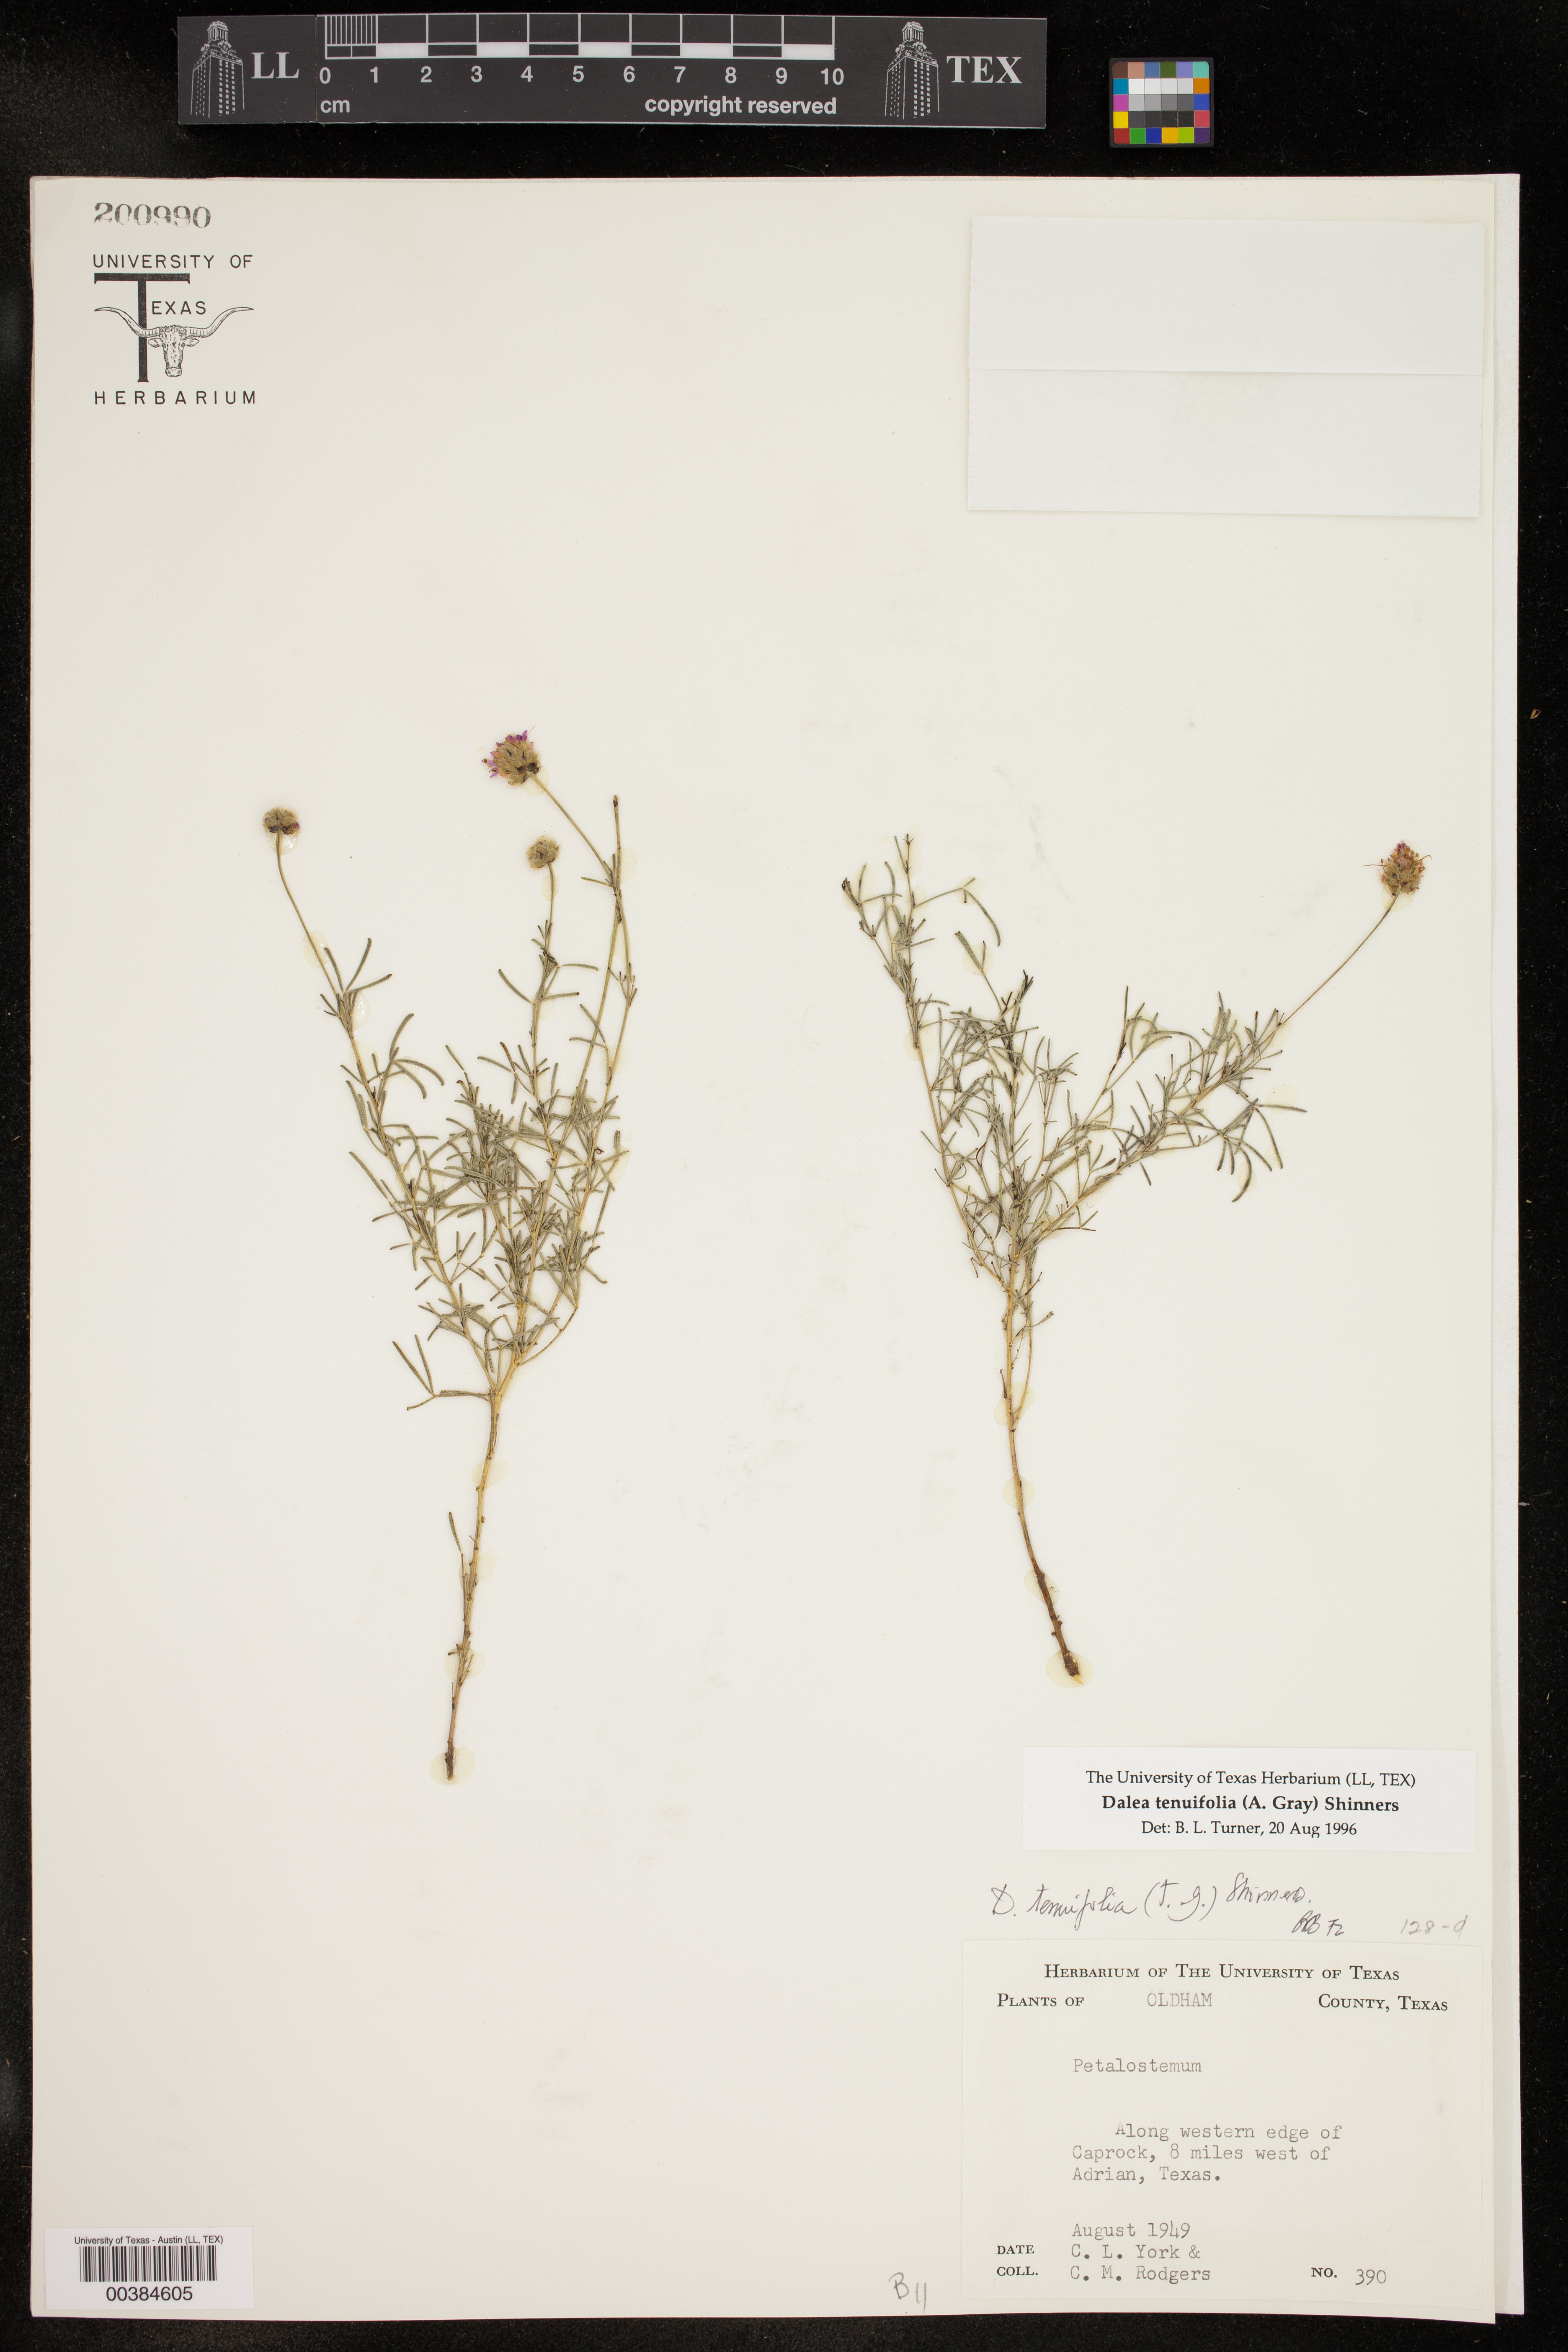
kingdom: Plantae
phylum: Tracheophyta
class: Magnoliopsida
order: Fabales
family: Fabaceae
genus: Dalea
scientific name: Dalea tenuifolia
